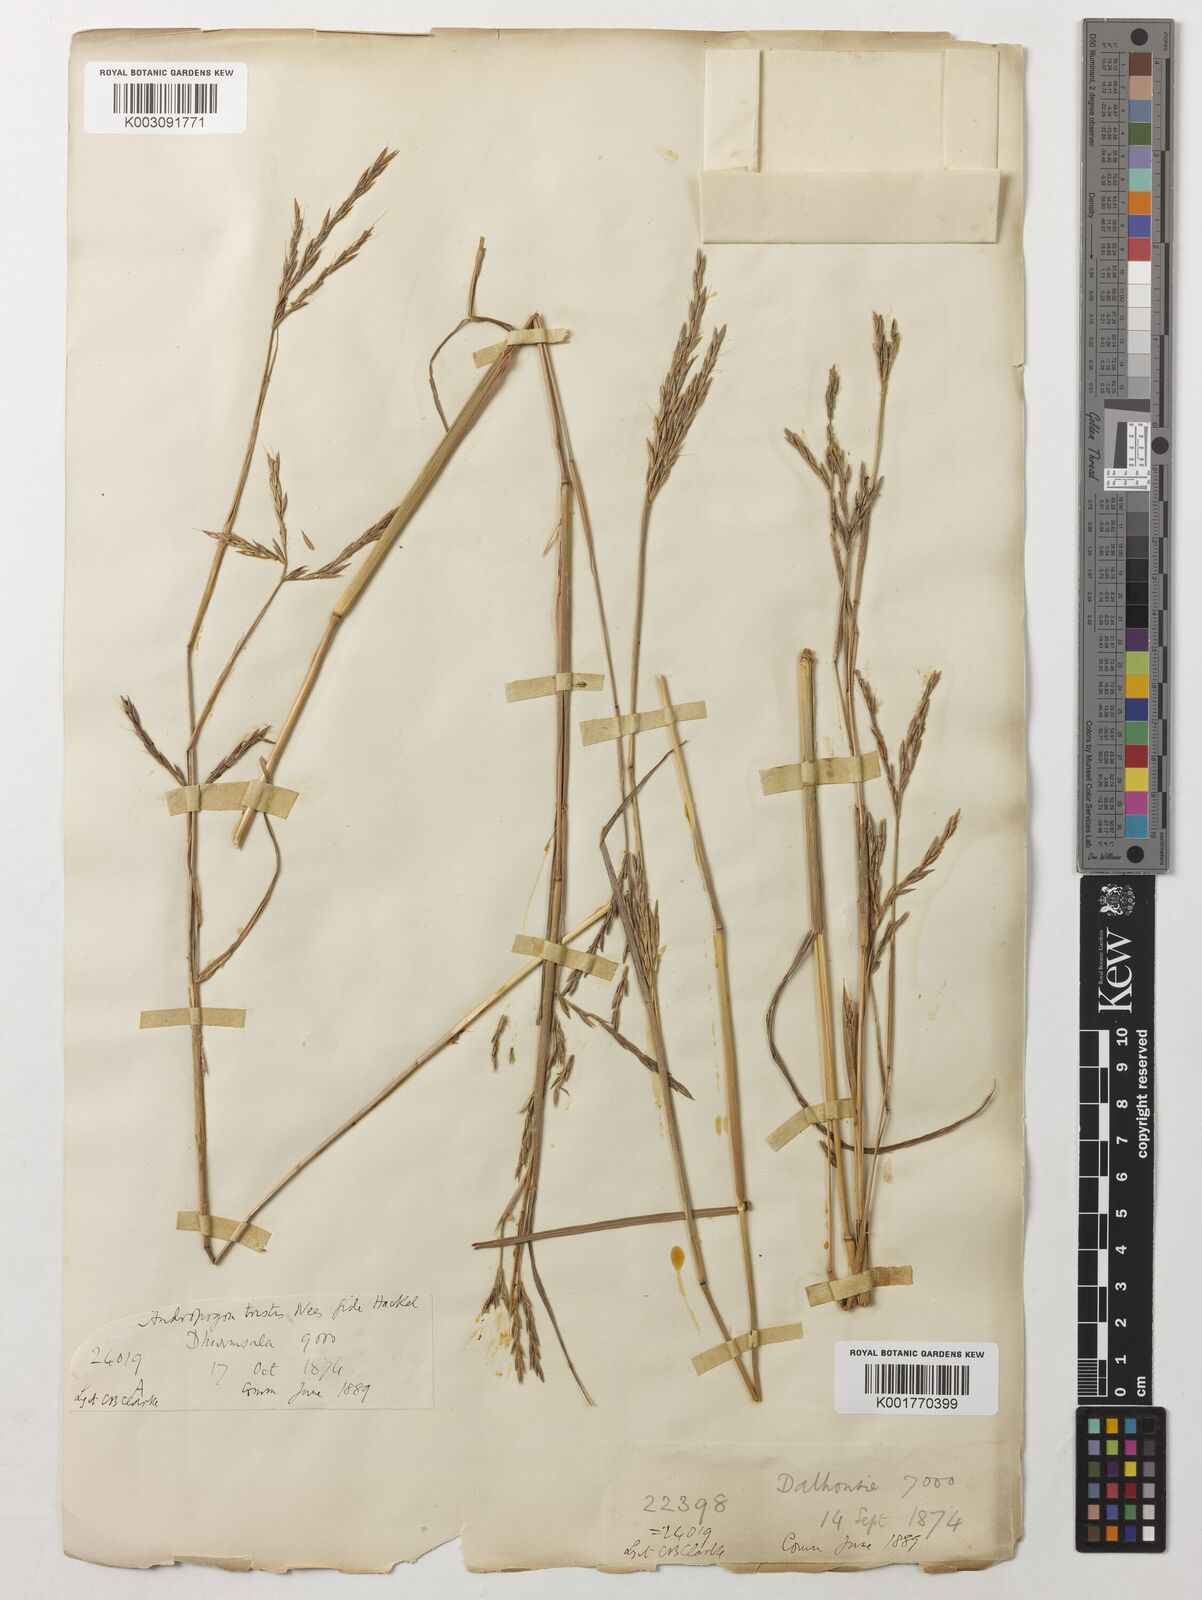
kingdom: Plantae
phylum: Tracheophyta
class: Liliopsida
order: Poales
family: Poaceae
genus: Andropogon
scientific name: Andropogon munroi
